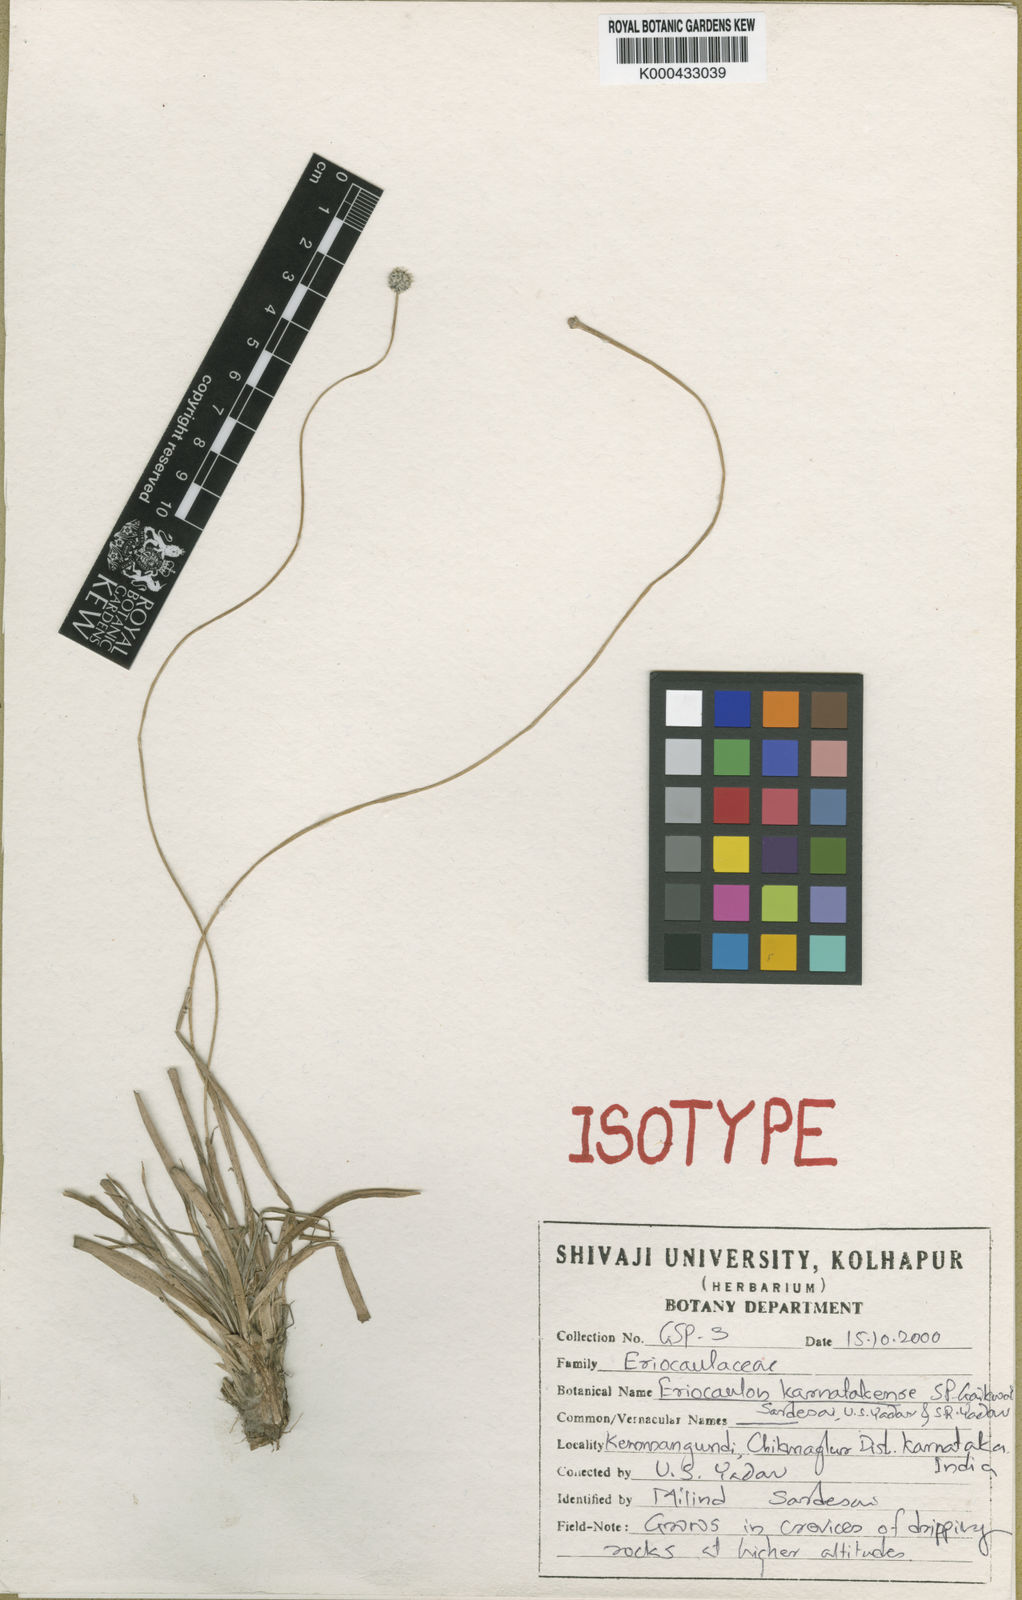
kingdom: Plantae
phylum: Tracheophyta
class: Liliopsida
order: Poales
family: Eriocaulaceae
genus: Eriocaulon
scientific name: Eriocaulon
